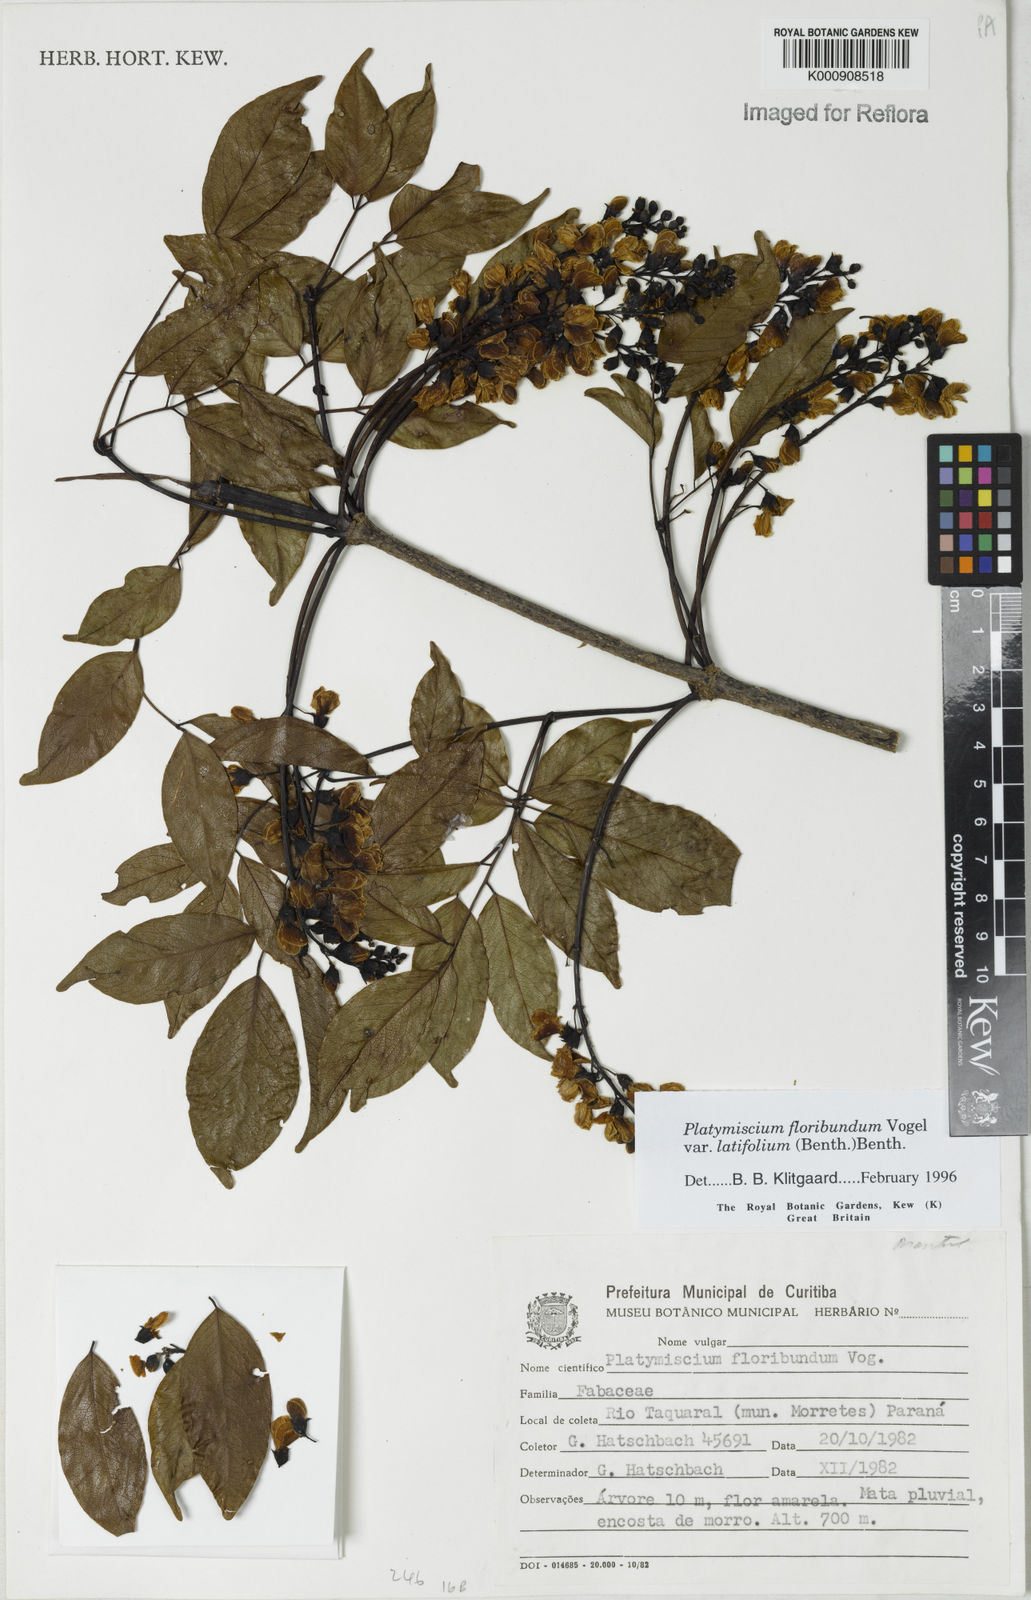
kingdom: Plantae
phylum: Tracheophyta
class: Magnoliopsida
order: Fabales
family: Fabaceae
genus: Platymiscium
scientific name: Platymiscium floribundum
